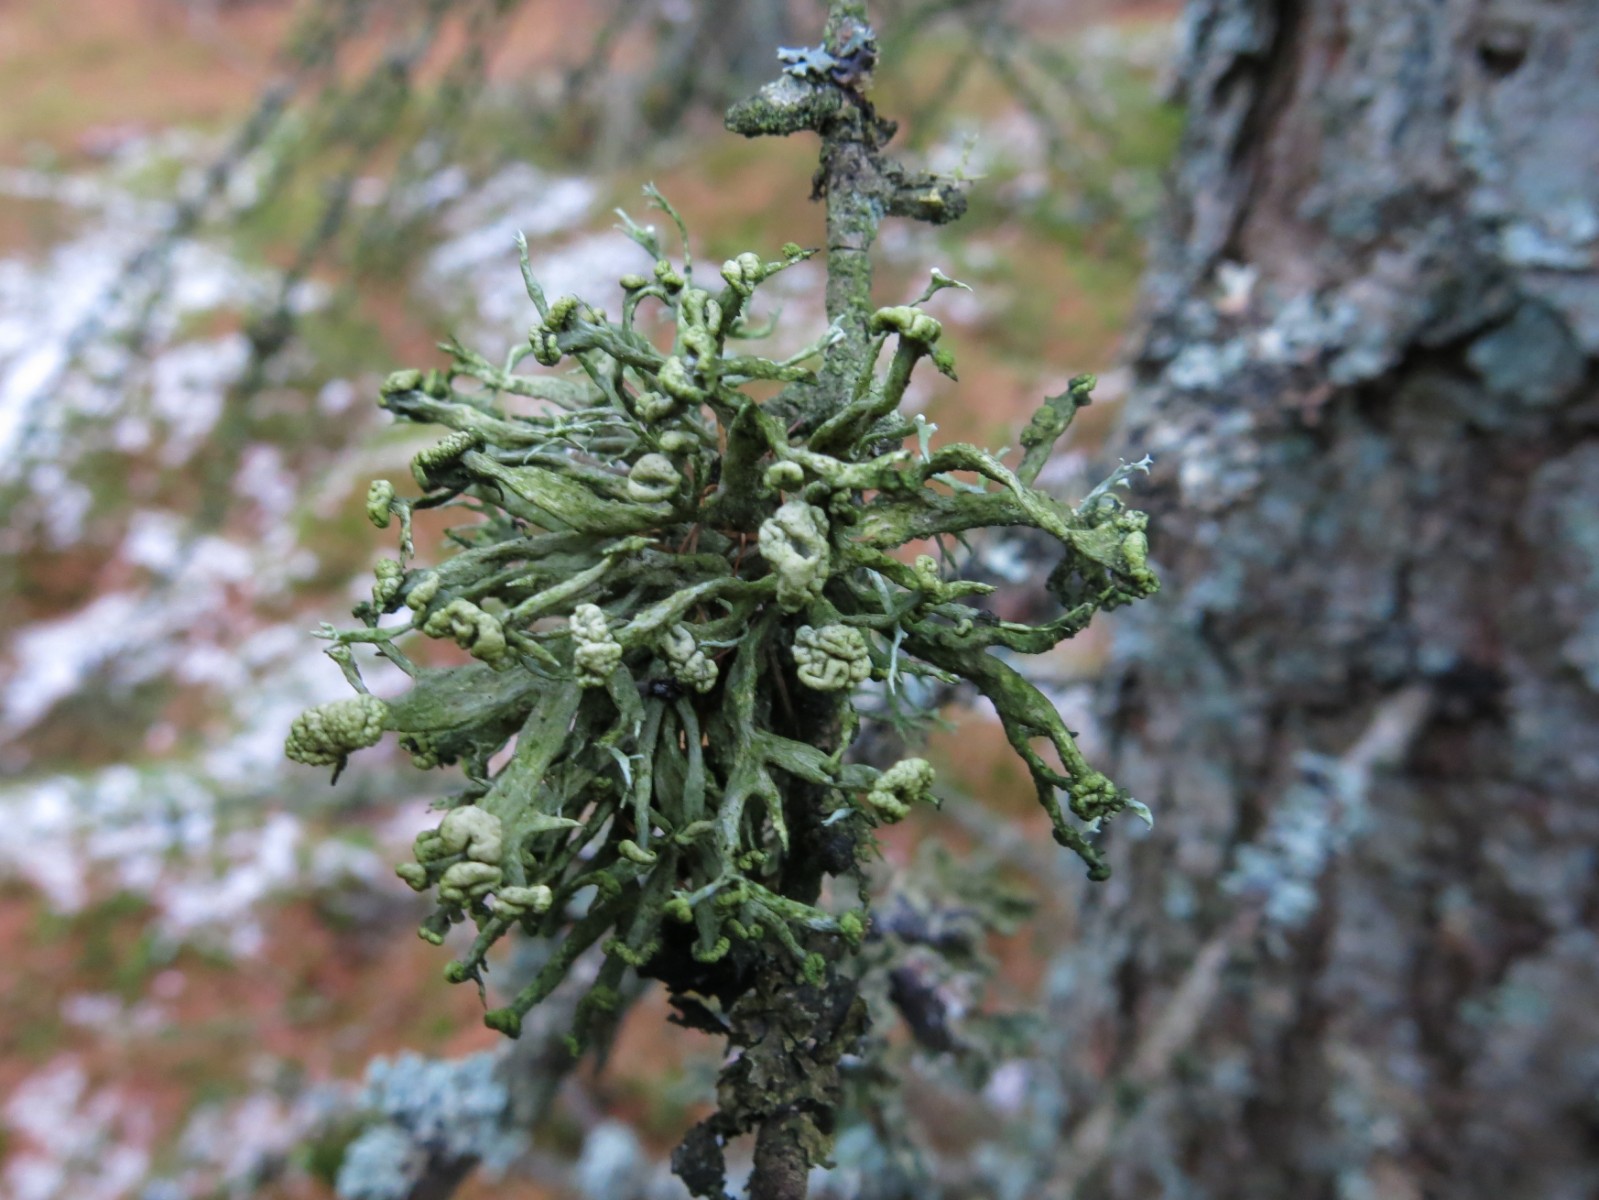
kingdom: Fungi
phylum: Ascomycota
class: Lecanoromycetes
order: Lecanorales
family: Ramalinaceae
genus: Ramalina
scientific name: Ramalina fastigiata
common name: tue-grenlav
